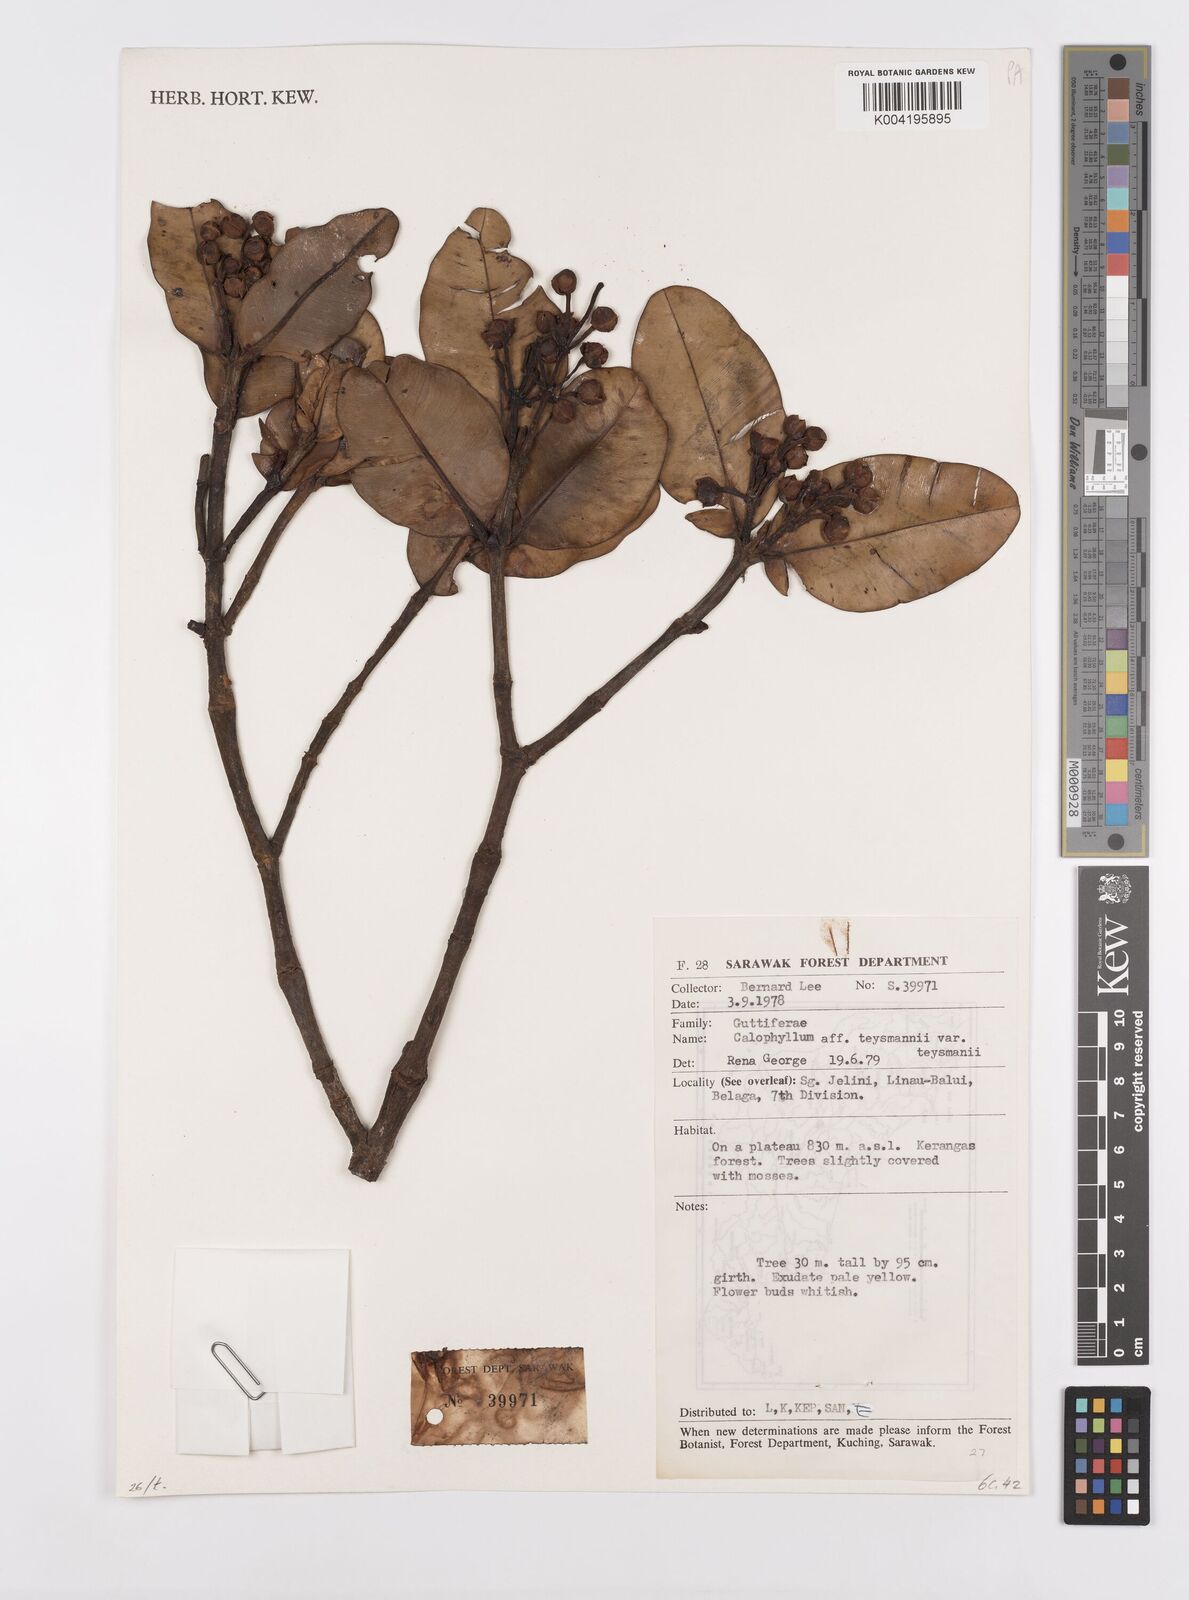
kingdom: Plantae
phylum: Tracheophyta
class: Magnoliopsida
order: Malpighiales
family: Calophyllaceae
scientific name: Calophyllaceae
